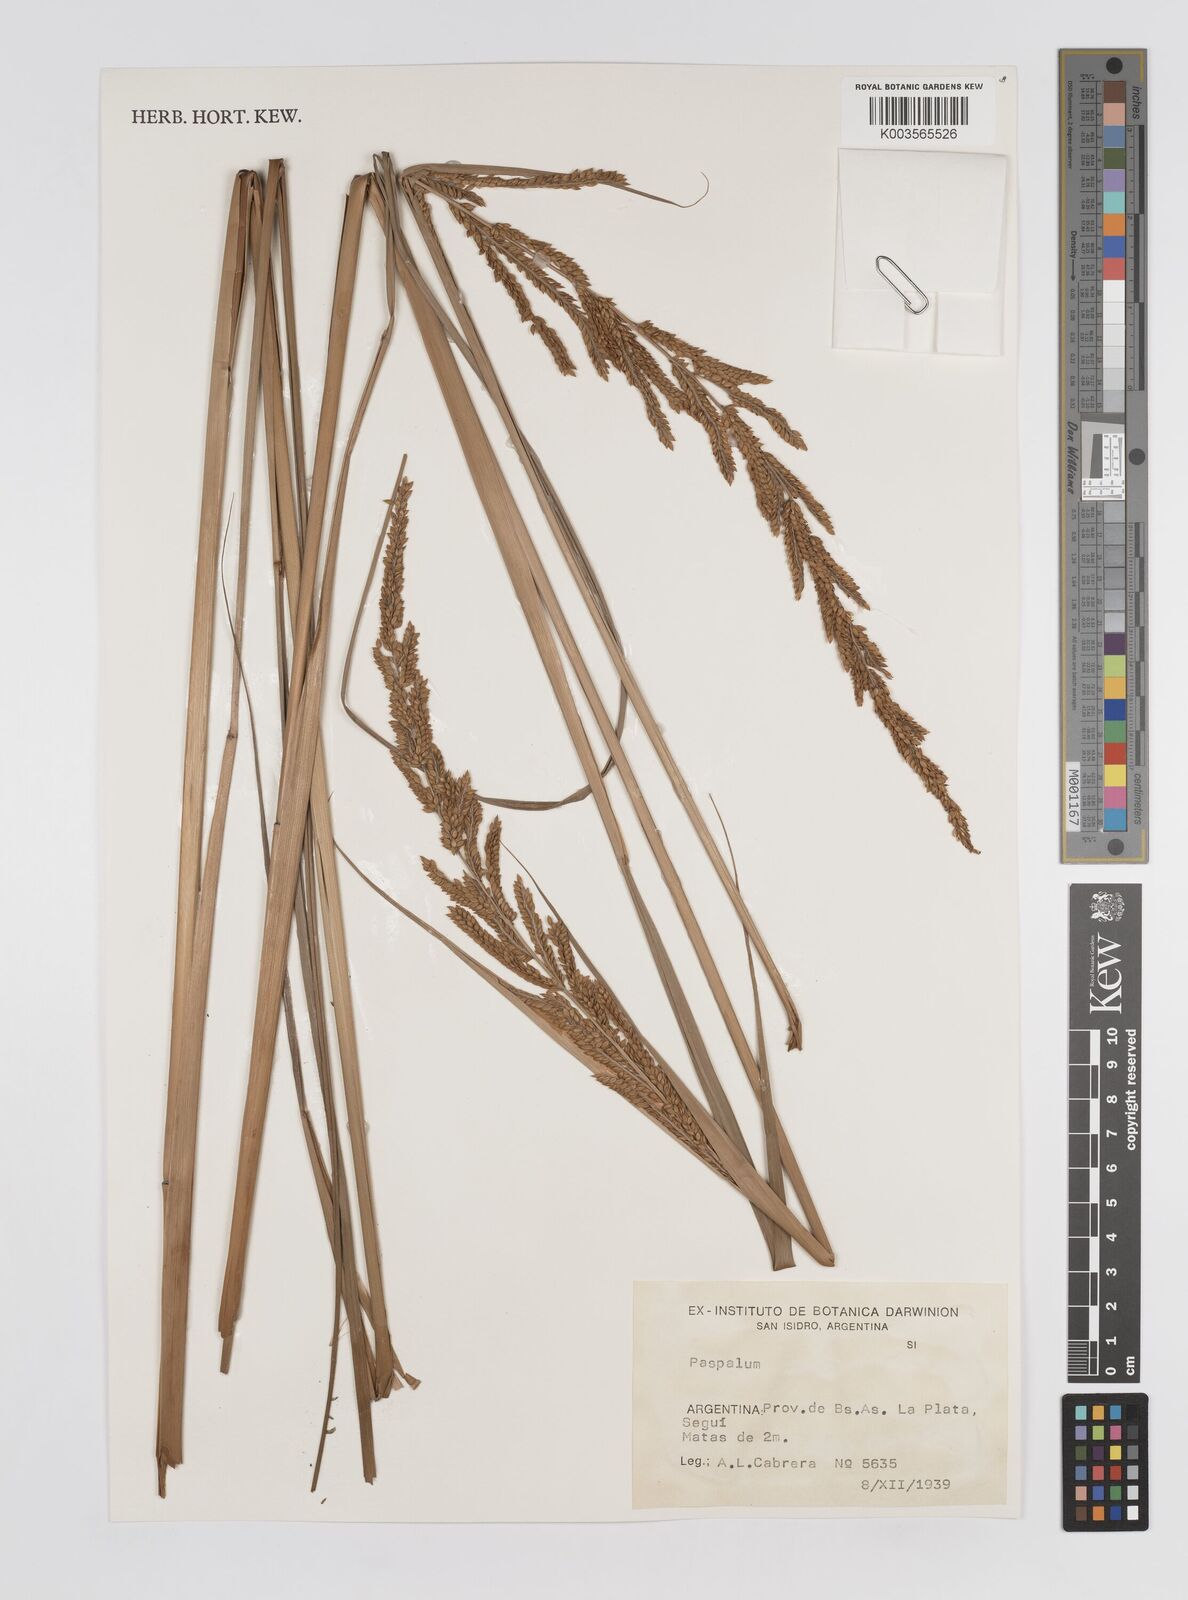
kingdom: Plantae
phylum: Tracheophyta
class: Liliopsida
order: Poales
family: Poaceae
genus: Paspalum
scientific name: Paspalum
